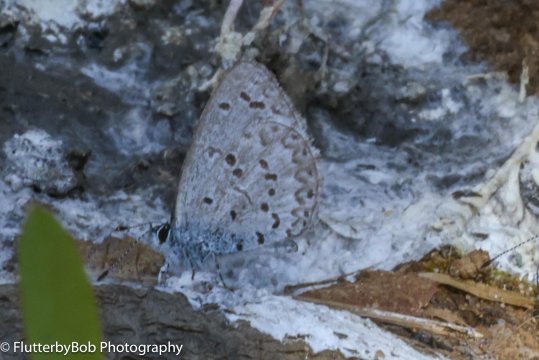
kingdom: Animalia
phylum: Arthropoda
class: Insecta
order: Lepidoptera
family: Lycaenidae
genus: Celastrina
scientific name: Celastrina ladon
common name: Spring Azure
